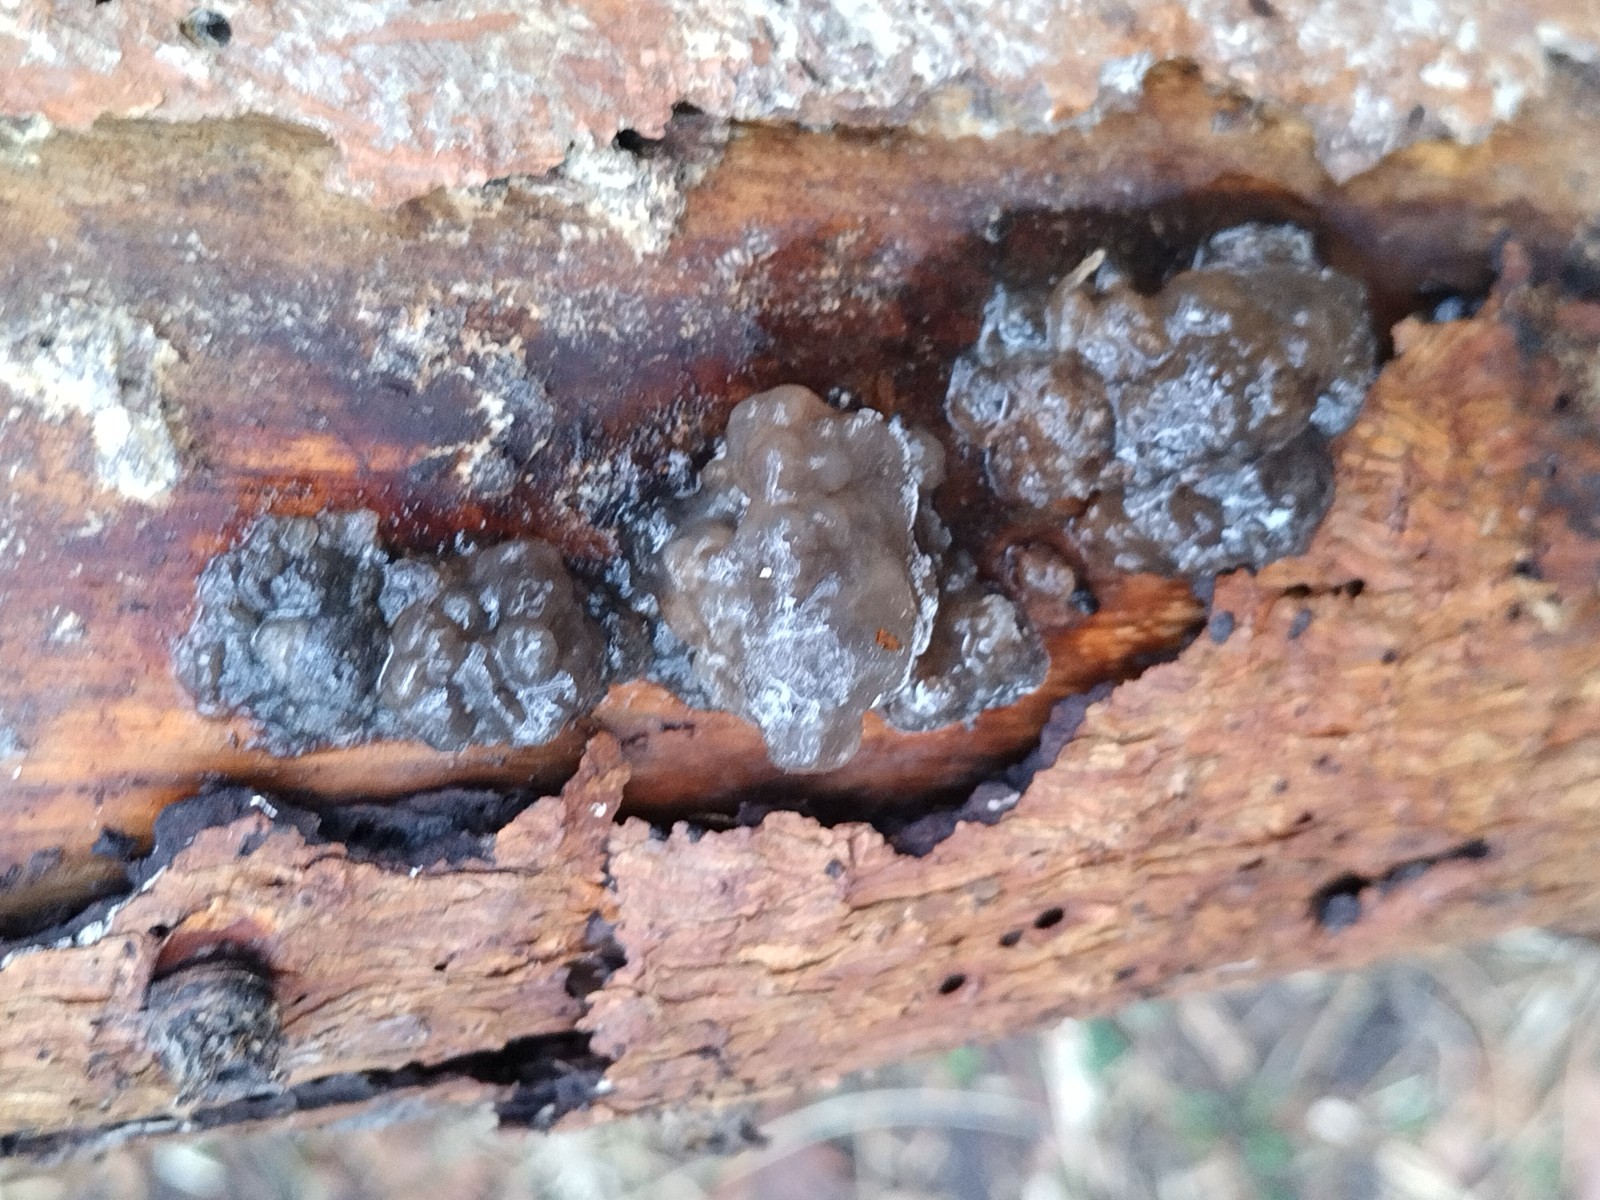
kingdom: Fungi
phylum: Basidiomycota
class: Agaricomycetes
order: Auriculariales
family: Auriculariaceae
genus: Exidia
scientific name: Exidia pithya
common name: gran-bævretop
